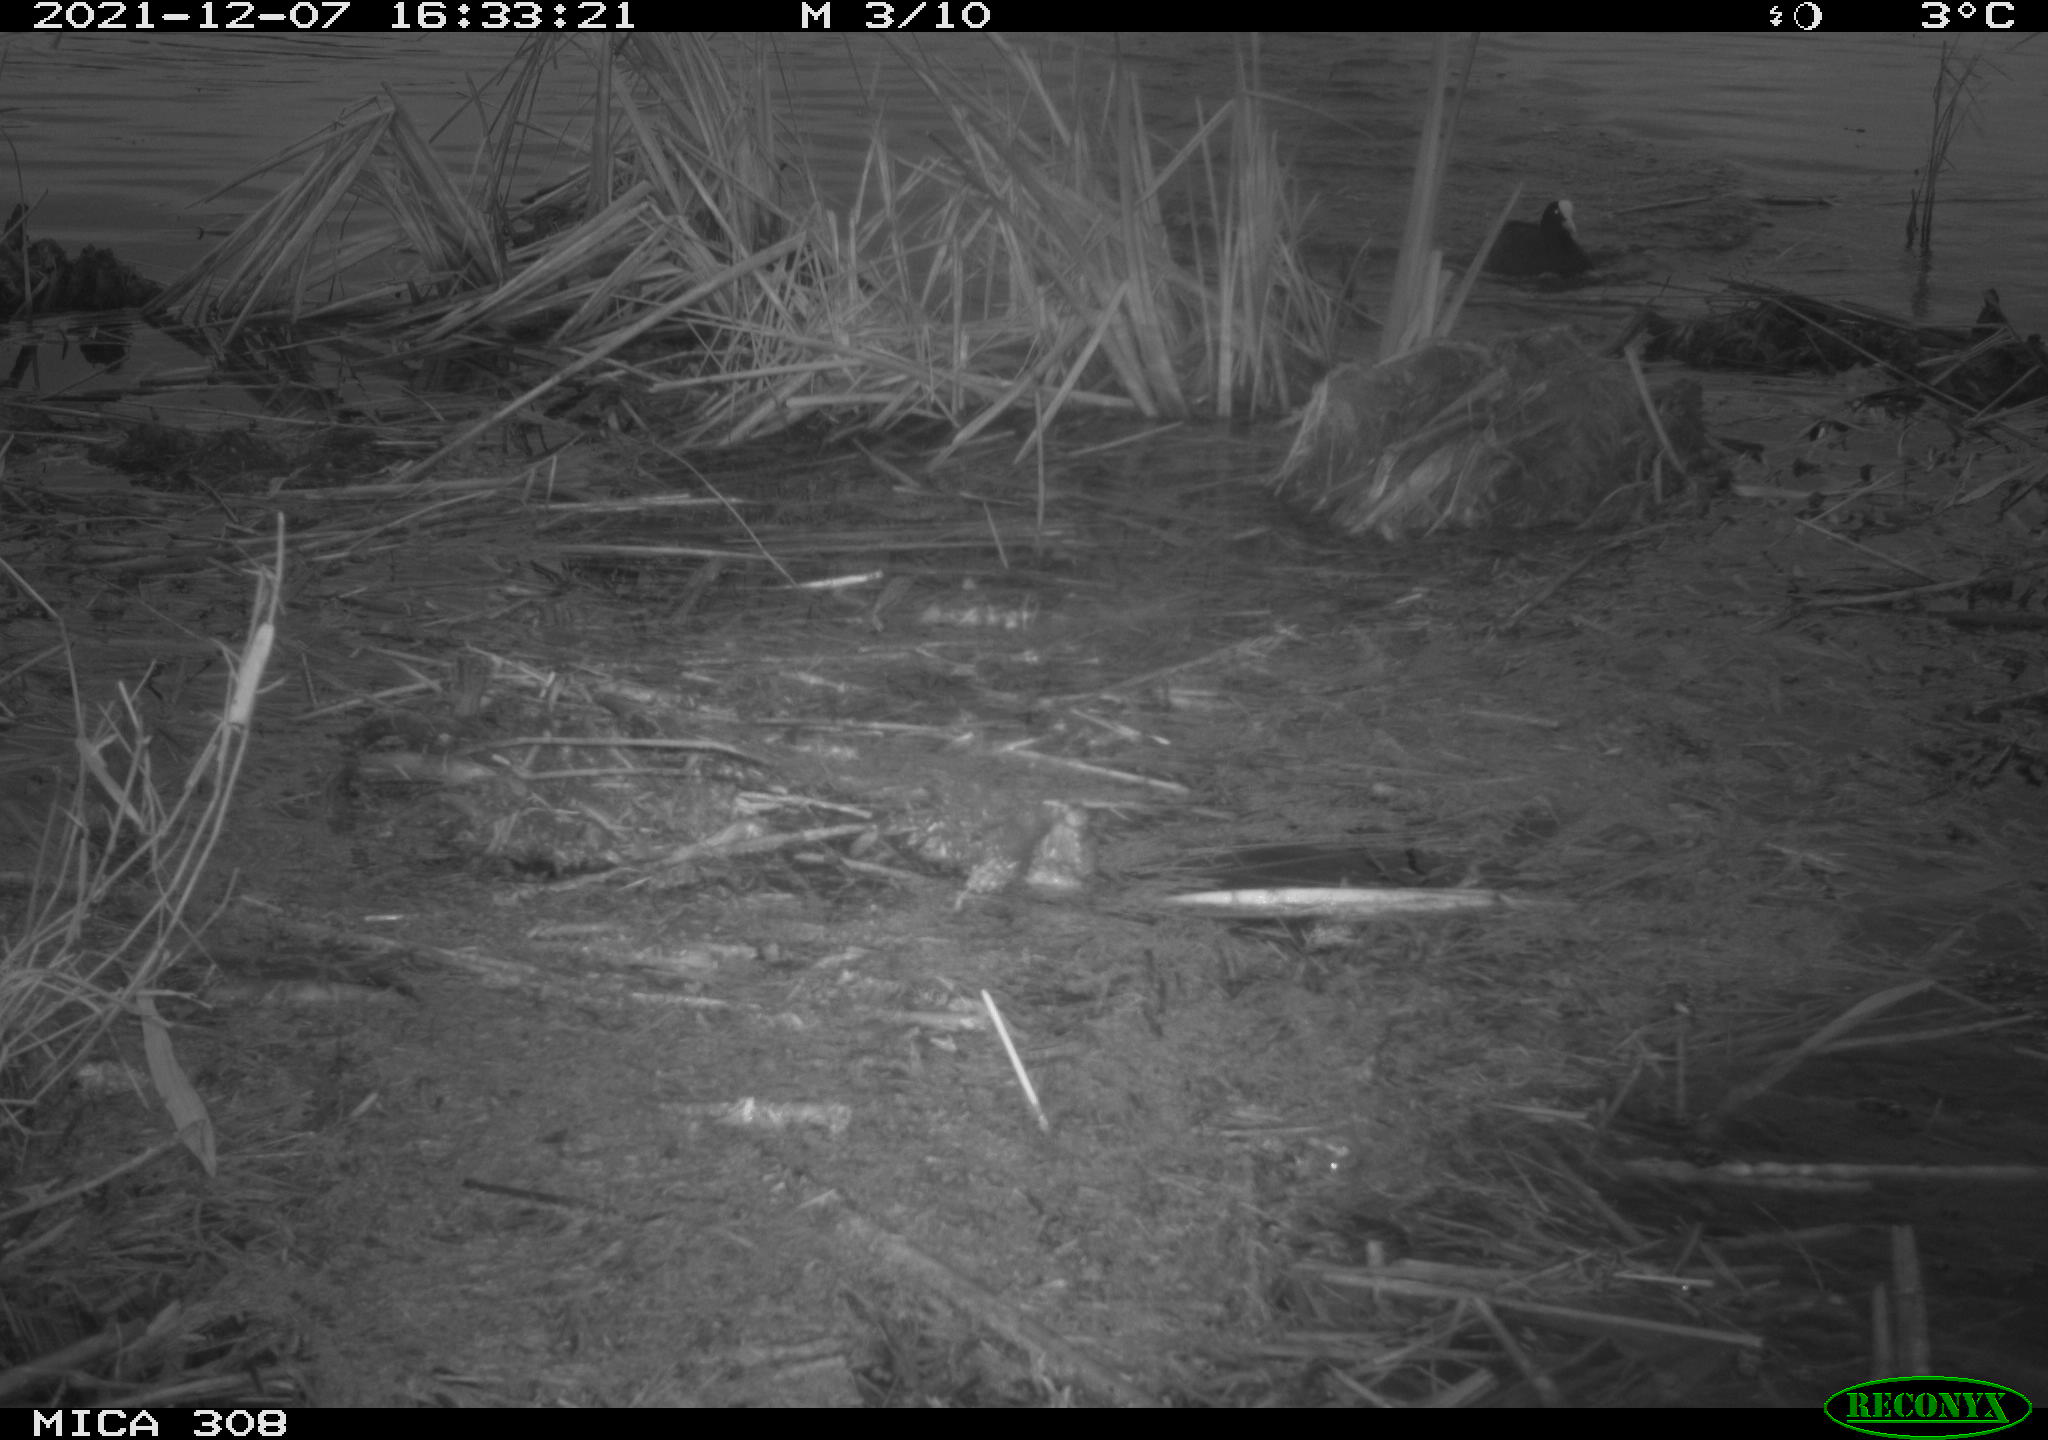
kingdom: Animalia
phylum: Chordata
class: Aves
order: Gruiformes
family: Rallidae
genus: Fulica
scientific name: Fulica atra
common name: Eurasian coot
